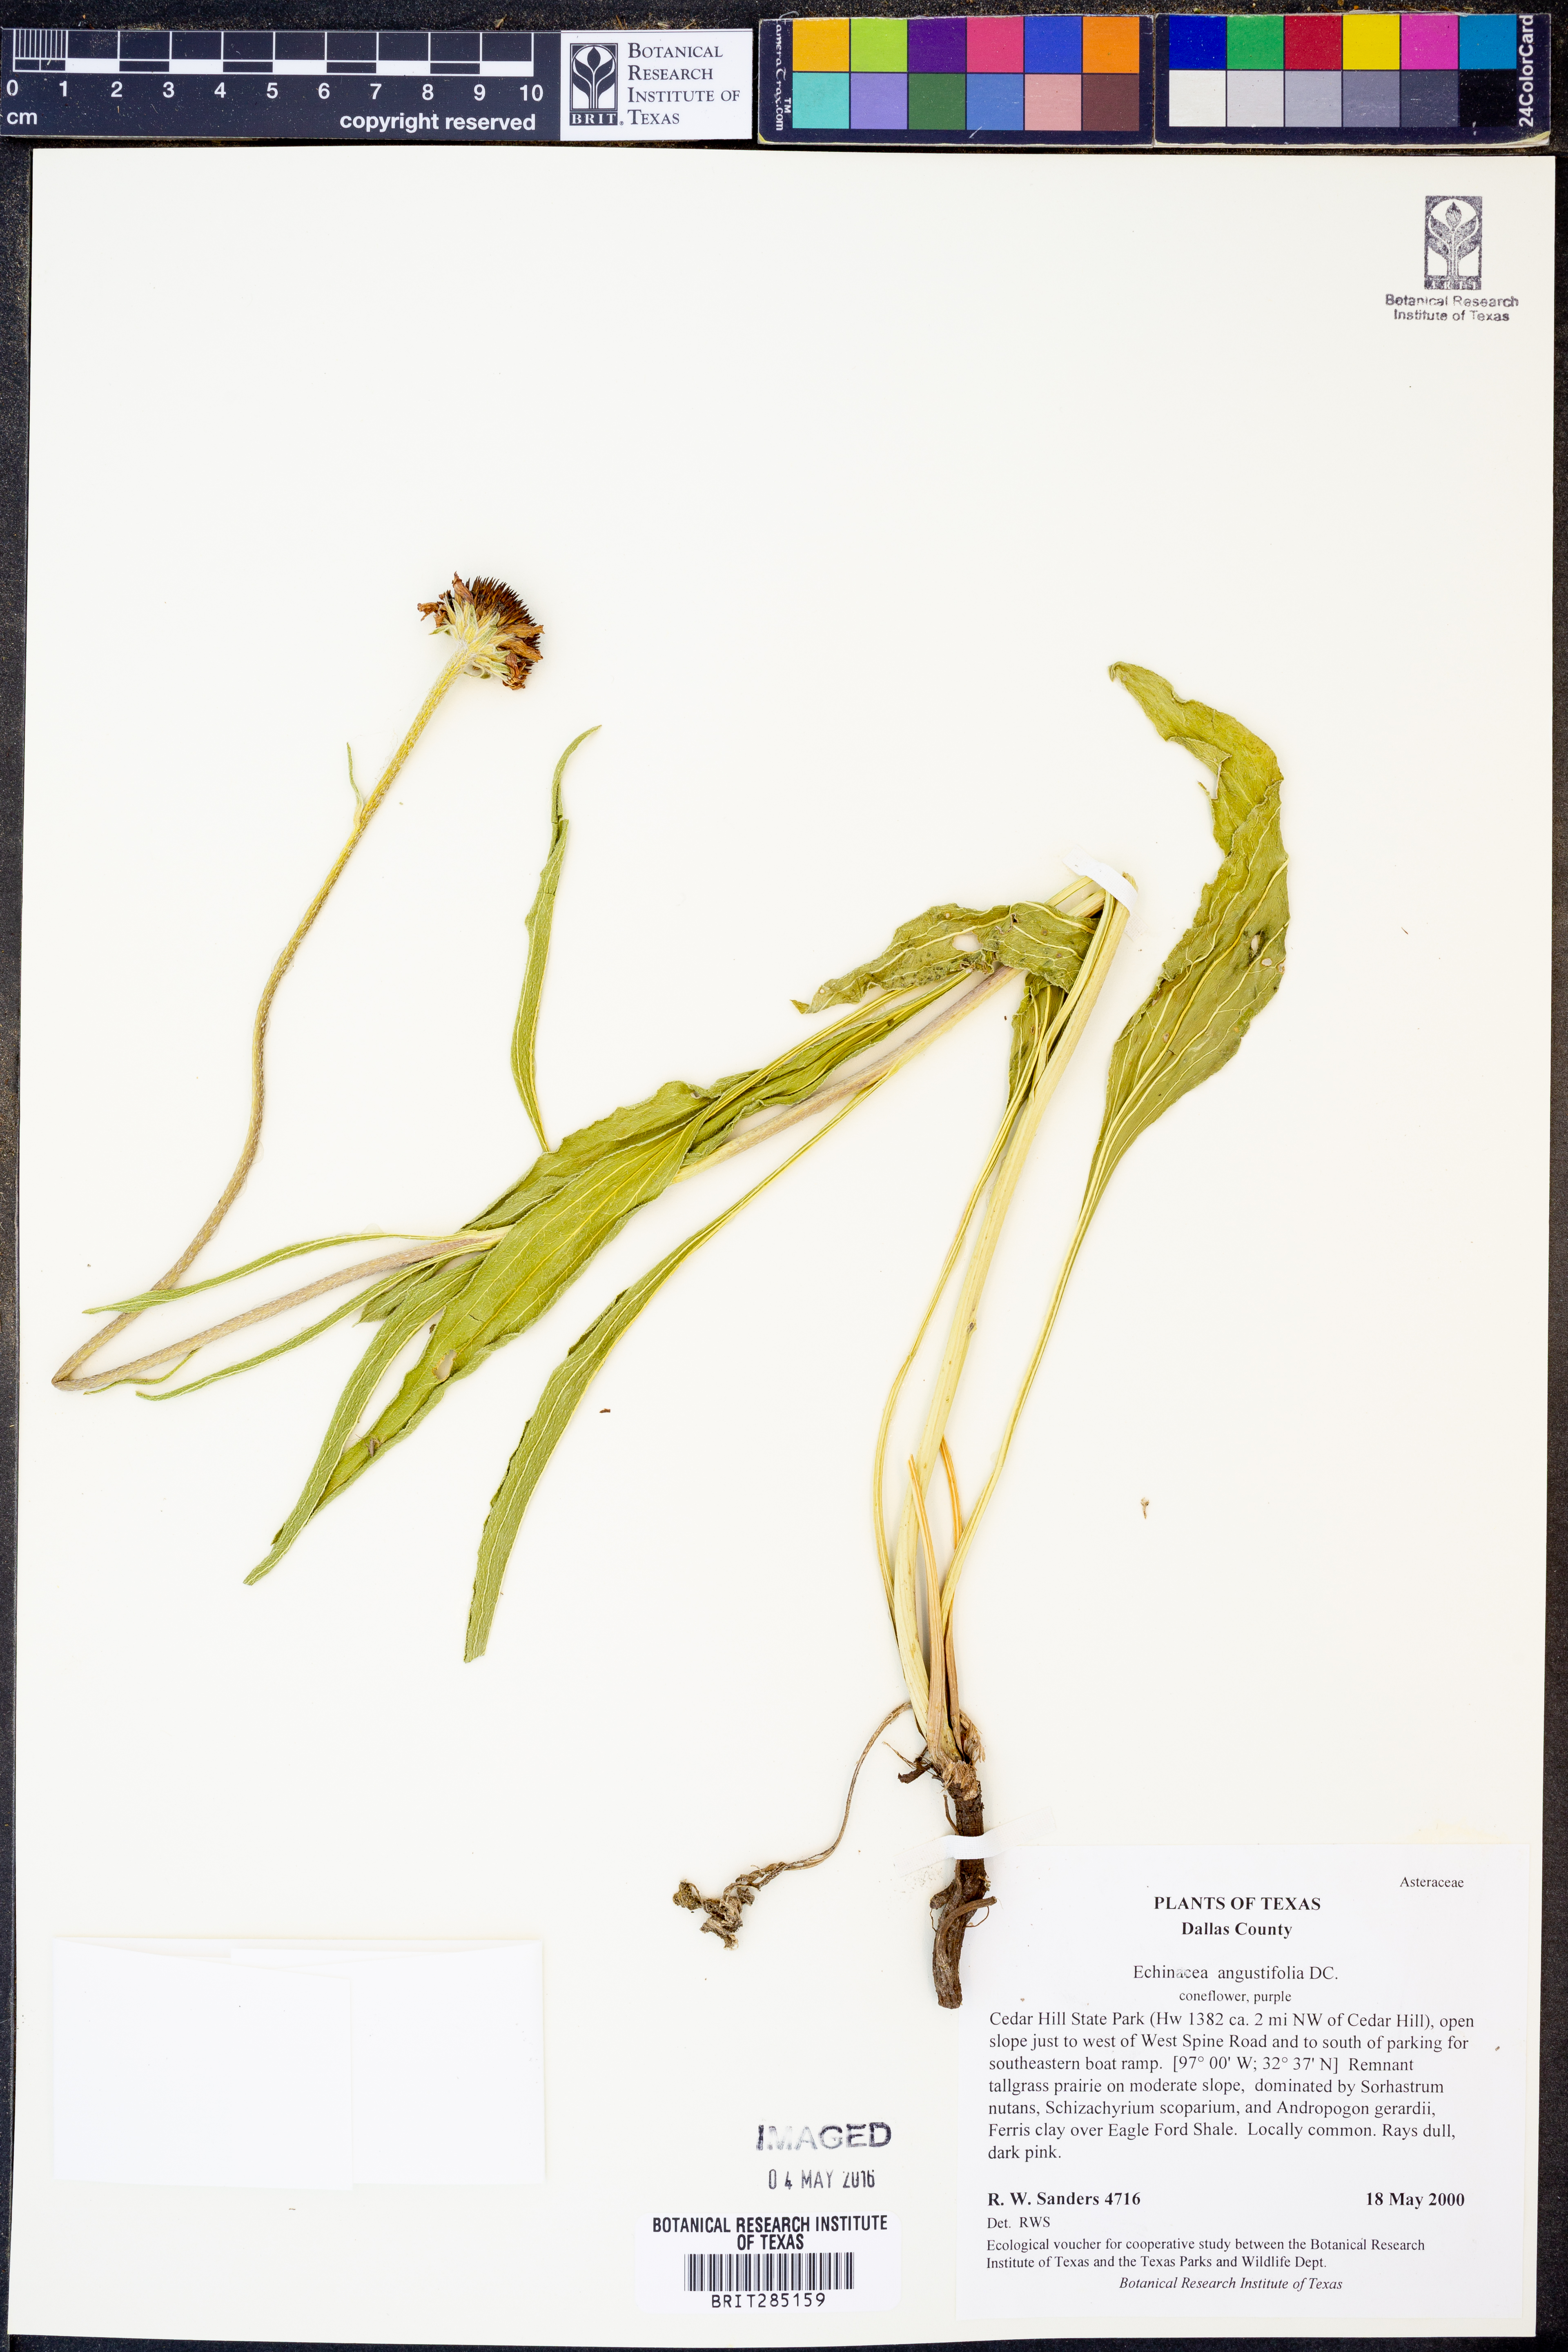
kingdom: Plantae
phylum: Tracheophyta
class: Magnoliopsida
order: Asterales
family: Asteraceae
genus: Echinacea
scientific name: Echinacea angustifolia
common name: Black-sampson echinacea
